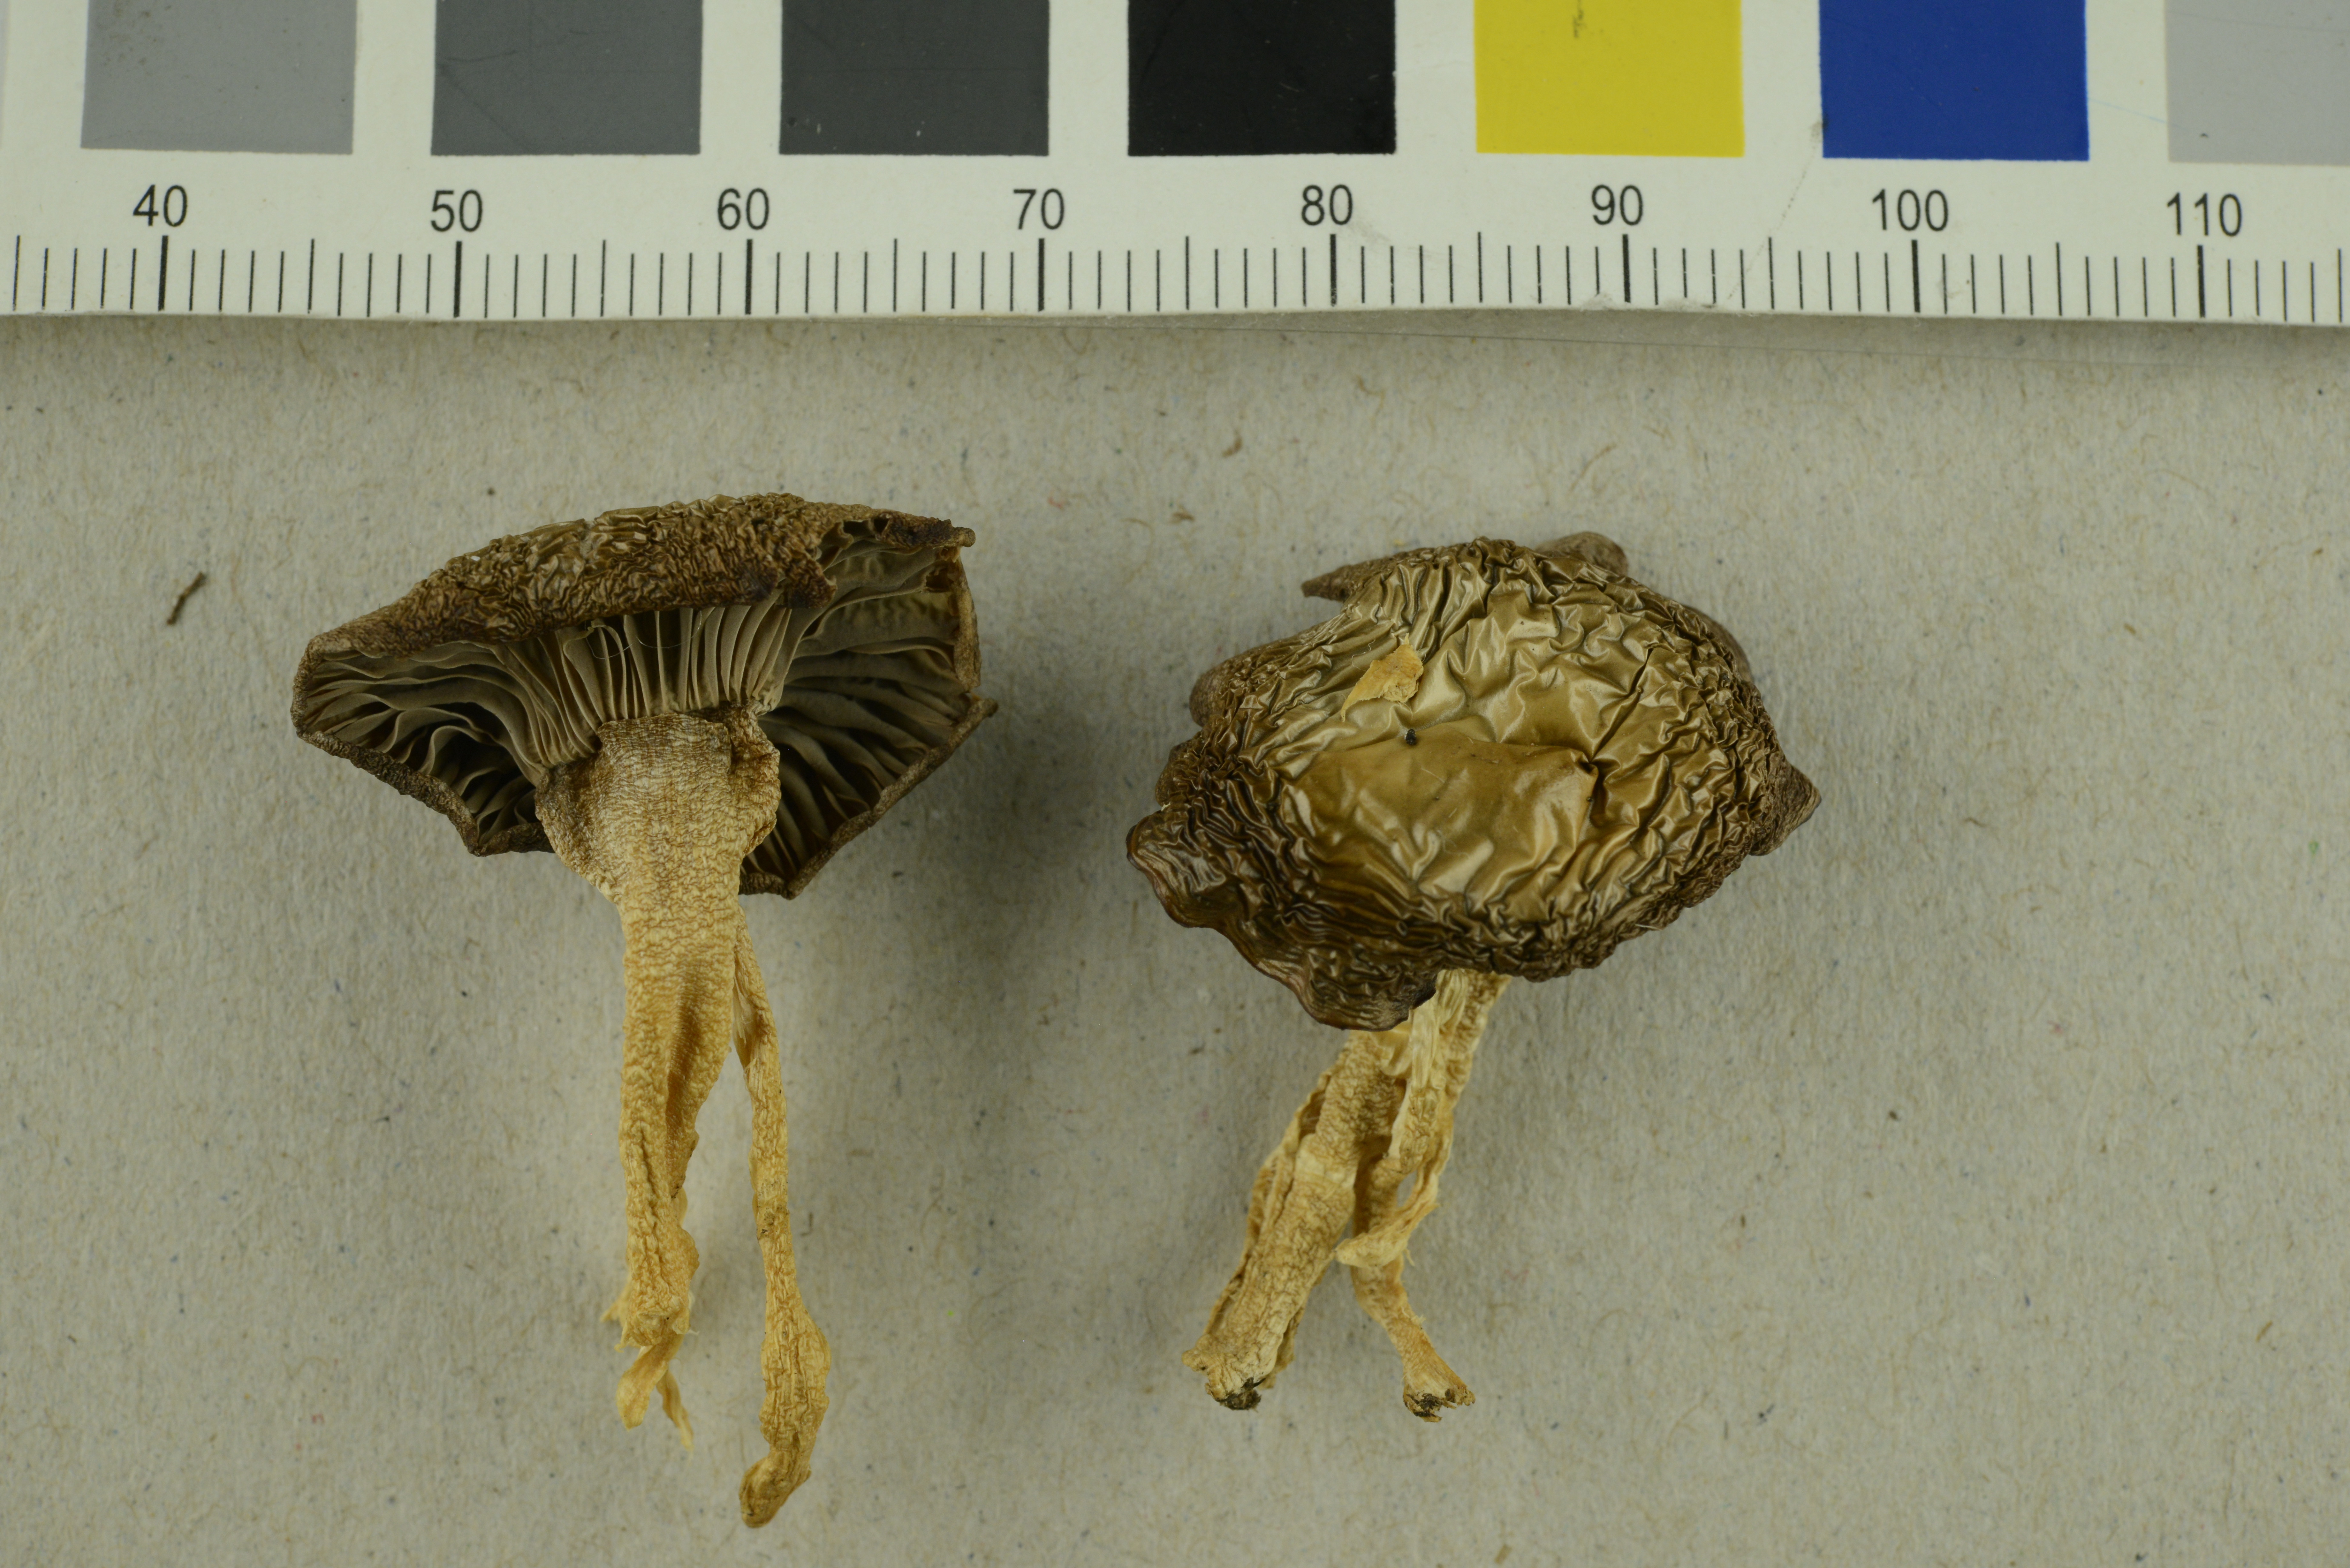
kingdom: Fungi
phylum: Basidiomycota
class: Agaricomycetes
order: Agaricales
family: Hygrophoraceae
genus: Cuphophyllus
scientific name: Cuphophyllus lacmus
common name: Grey waxcap
